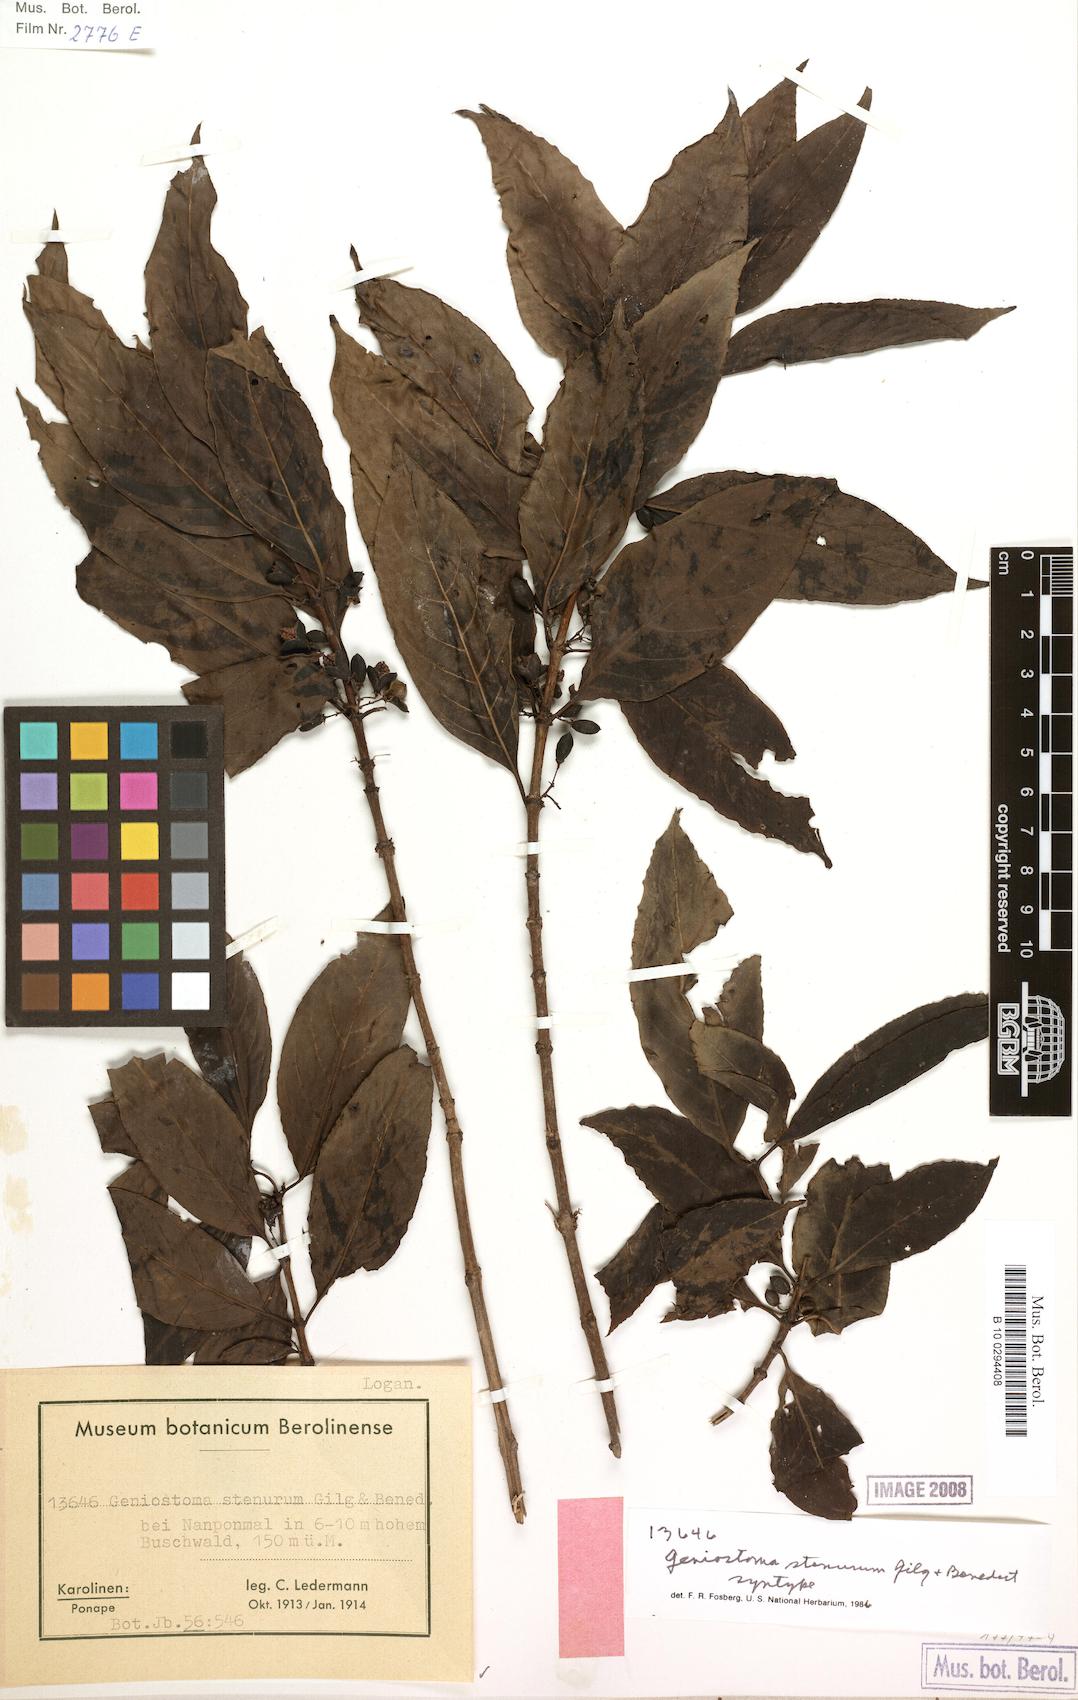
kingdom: Plantae
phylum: Tracheophyta
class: Magnoliopsida
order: Gentianales
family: Loganiaceae
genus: Geniostoma
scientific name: Geniostoma rupestre
